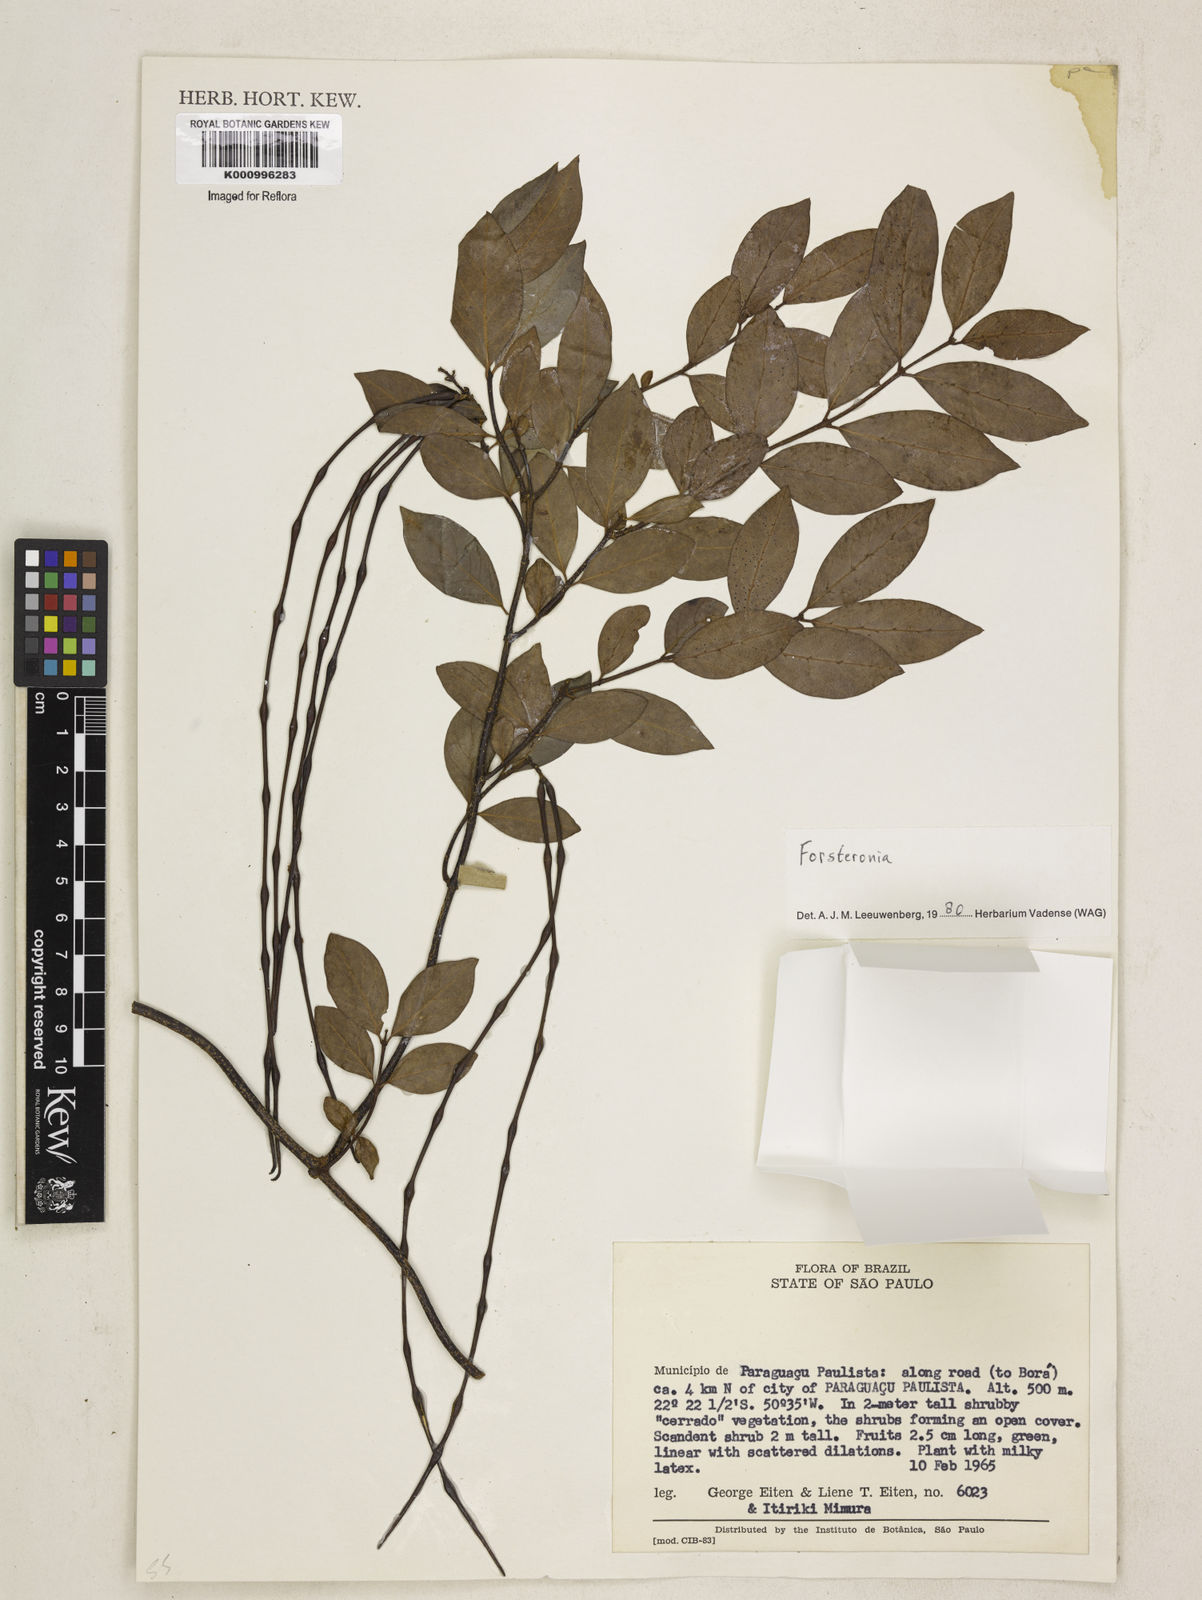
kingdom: Plantae
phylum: Tracheophyta
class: Magnoliopsida
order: Gentianales
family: Apocynaceae
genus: Forsteronia
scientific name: Forsteronia
